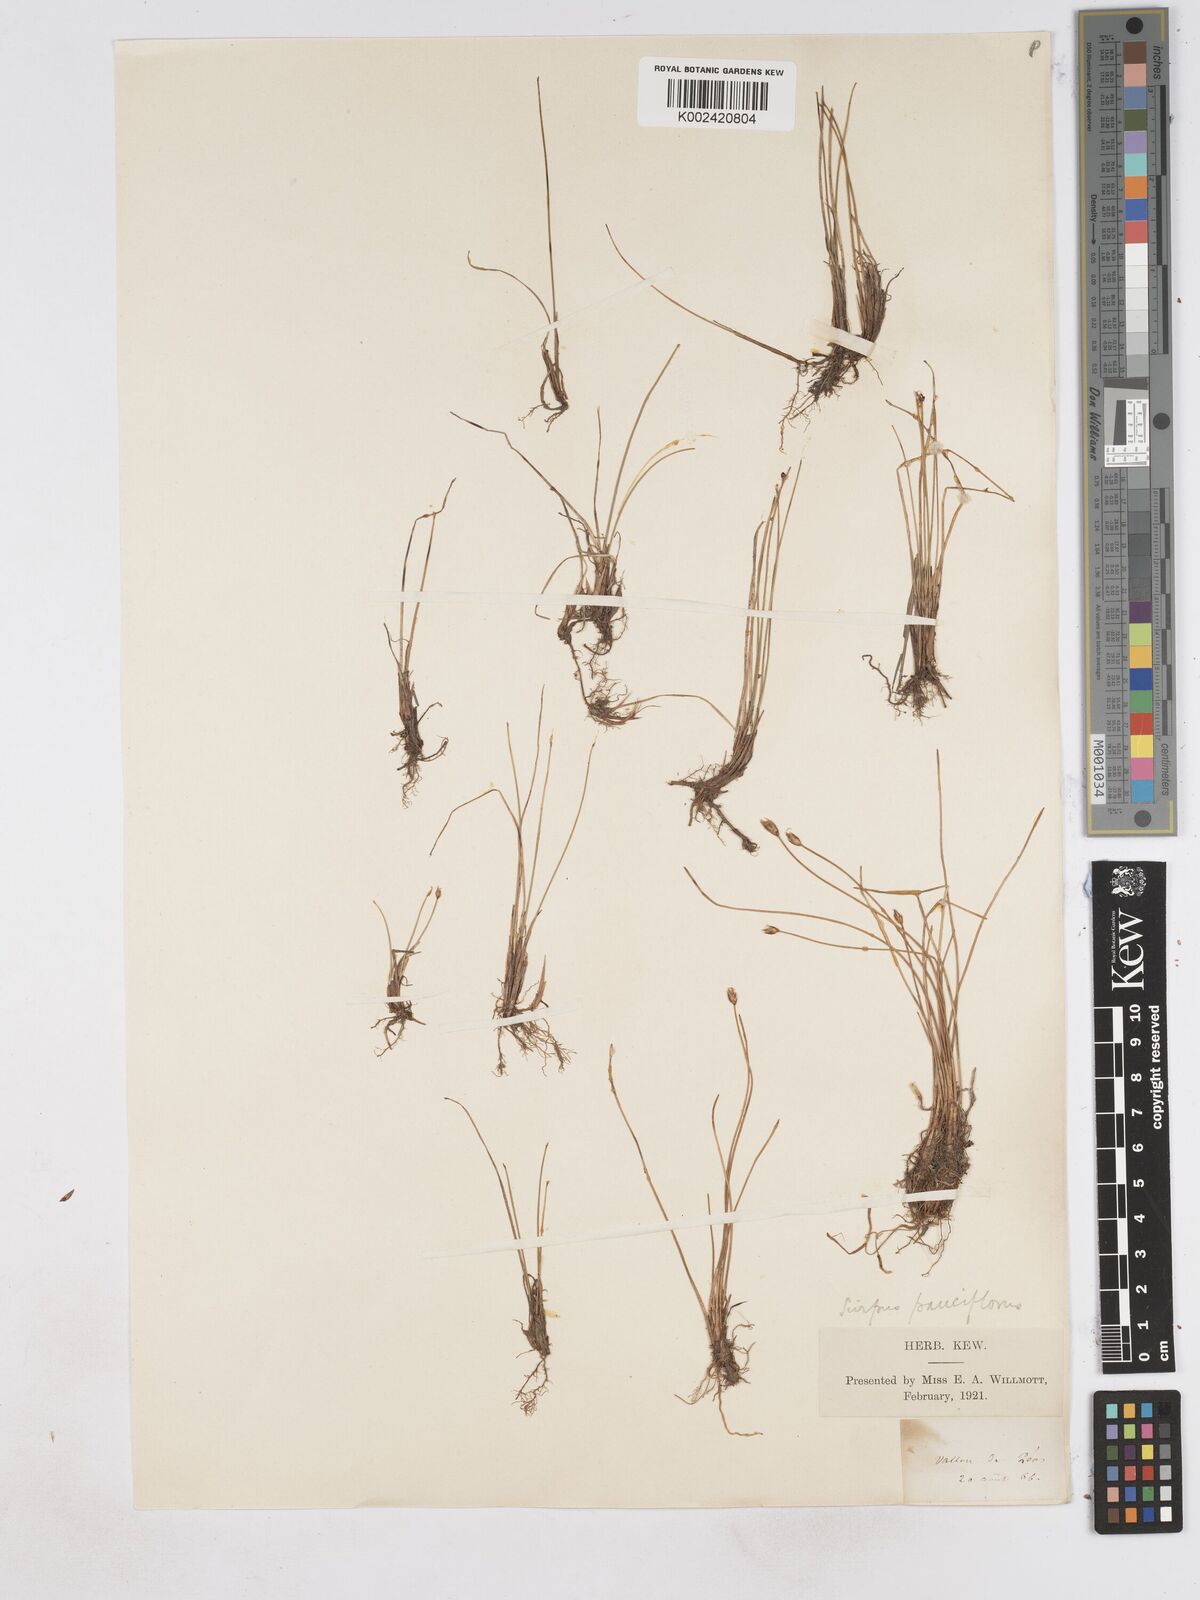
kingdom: Plantae
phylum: Tracheophyta
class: Liliopsida
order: Poales
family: Cyperaceae
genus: Eleocharis
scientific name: Eleocharis quinqueflora
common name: Few-flowered spike-rush
